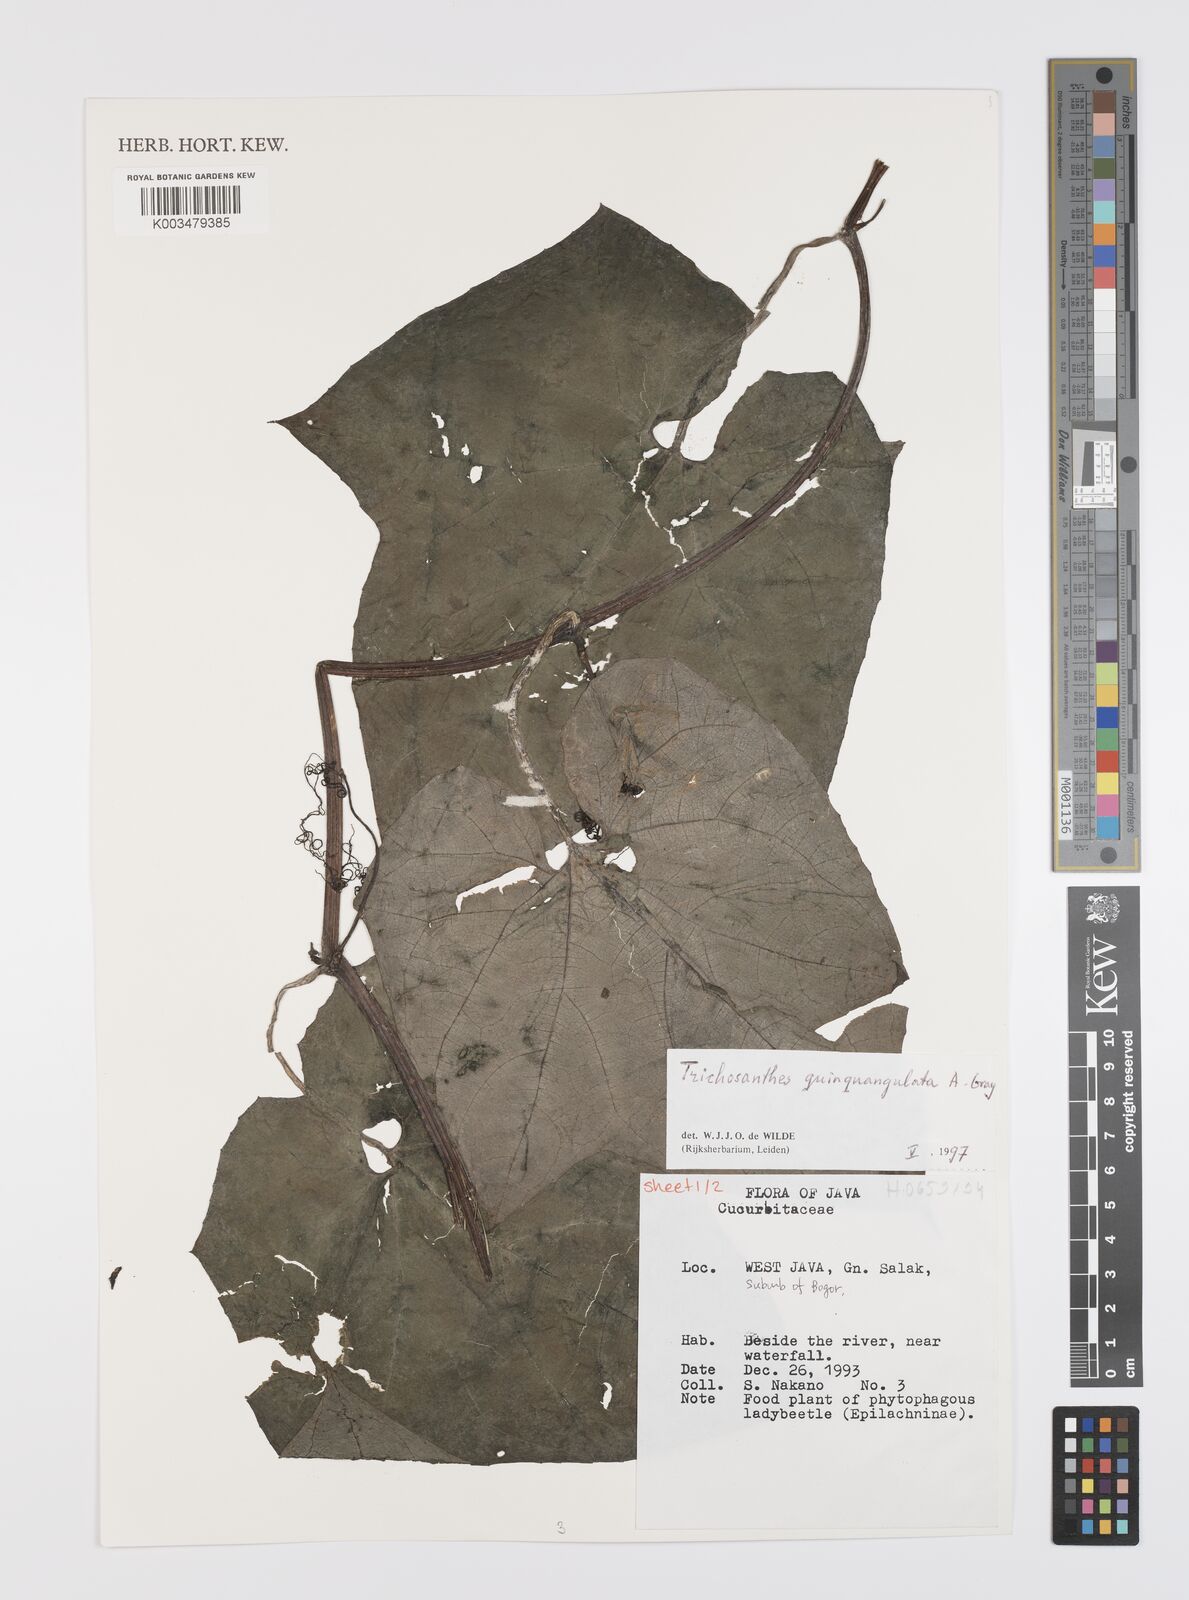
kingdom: Plantae
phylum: Tracheophyta
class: Magnoliopsida
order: Cucurbitales
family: Cucurbitaceae
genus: Trichosanthes
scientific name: Trichosanthes tricuspidata
